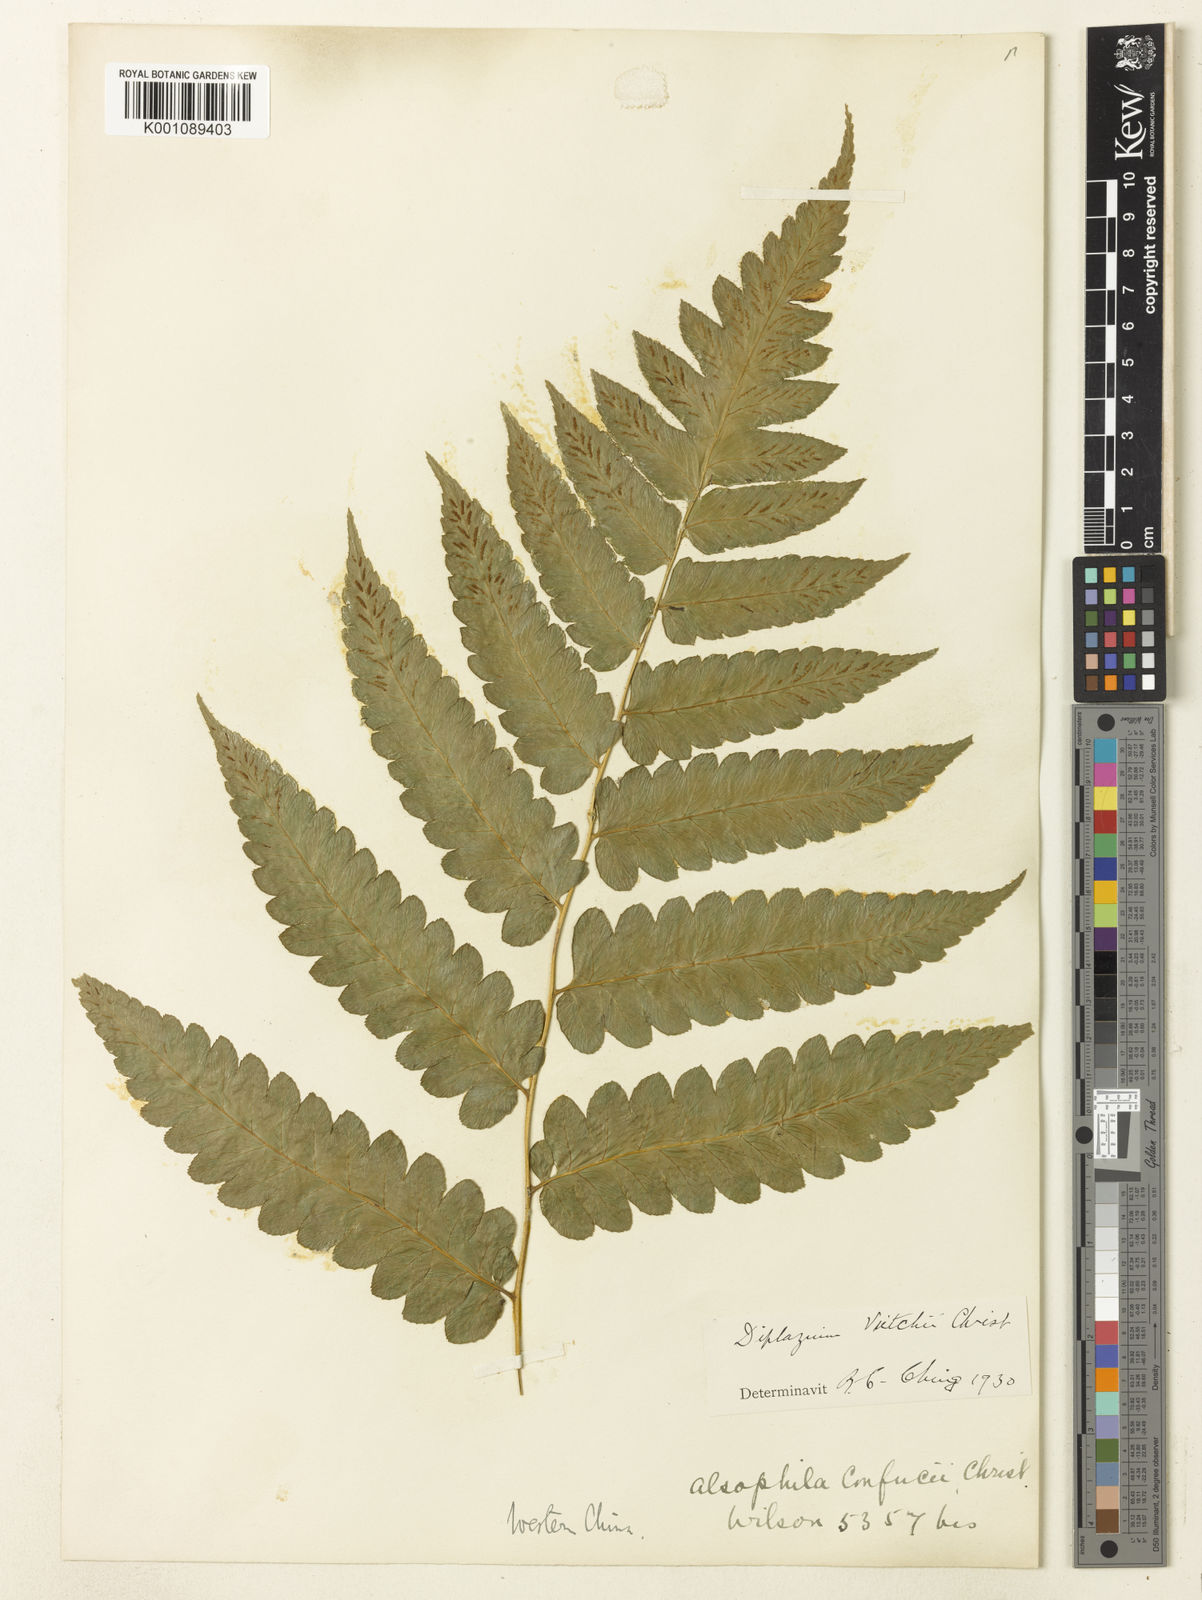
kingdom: Plantae
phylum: Tracheophyta
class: Polypodiopsida
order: Polypodiales
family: Athyriaceae
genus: Diplazium
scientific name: Diplazium dilatatum
